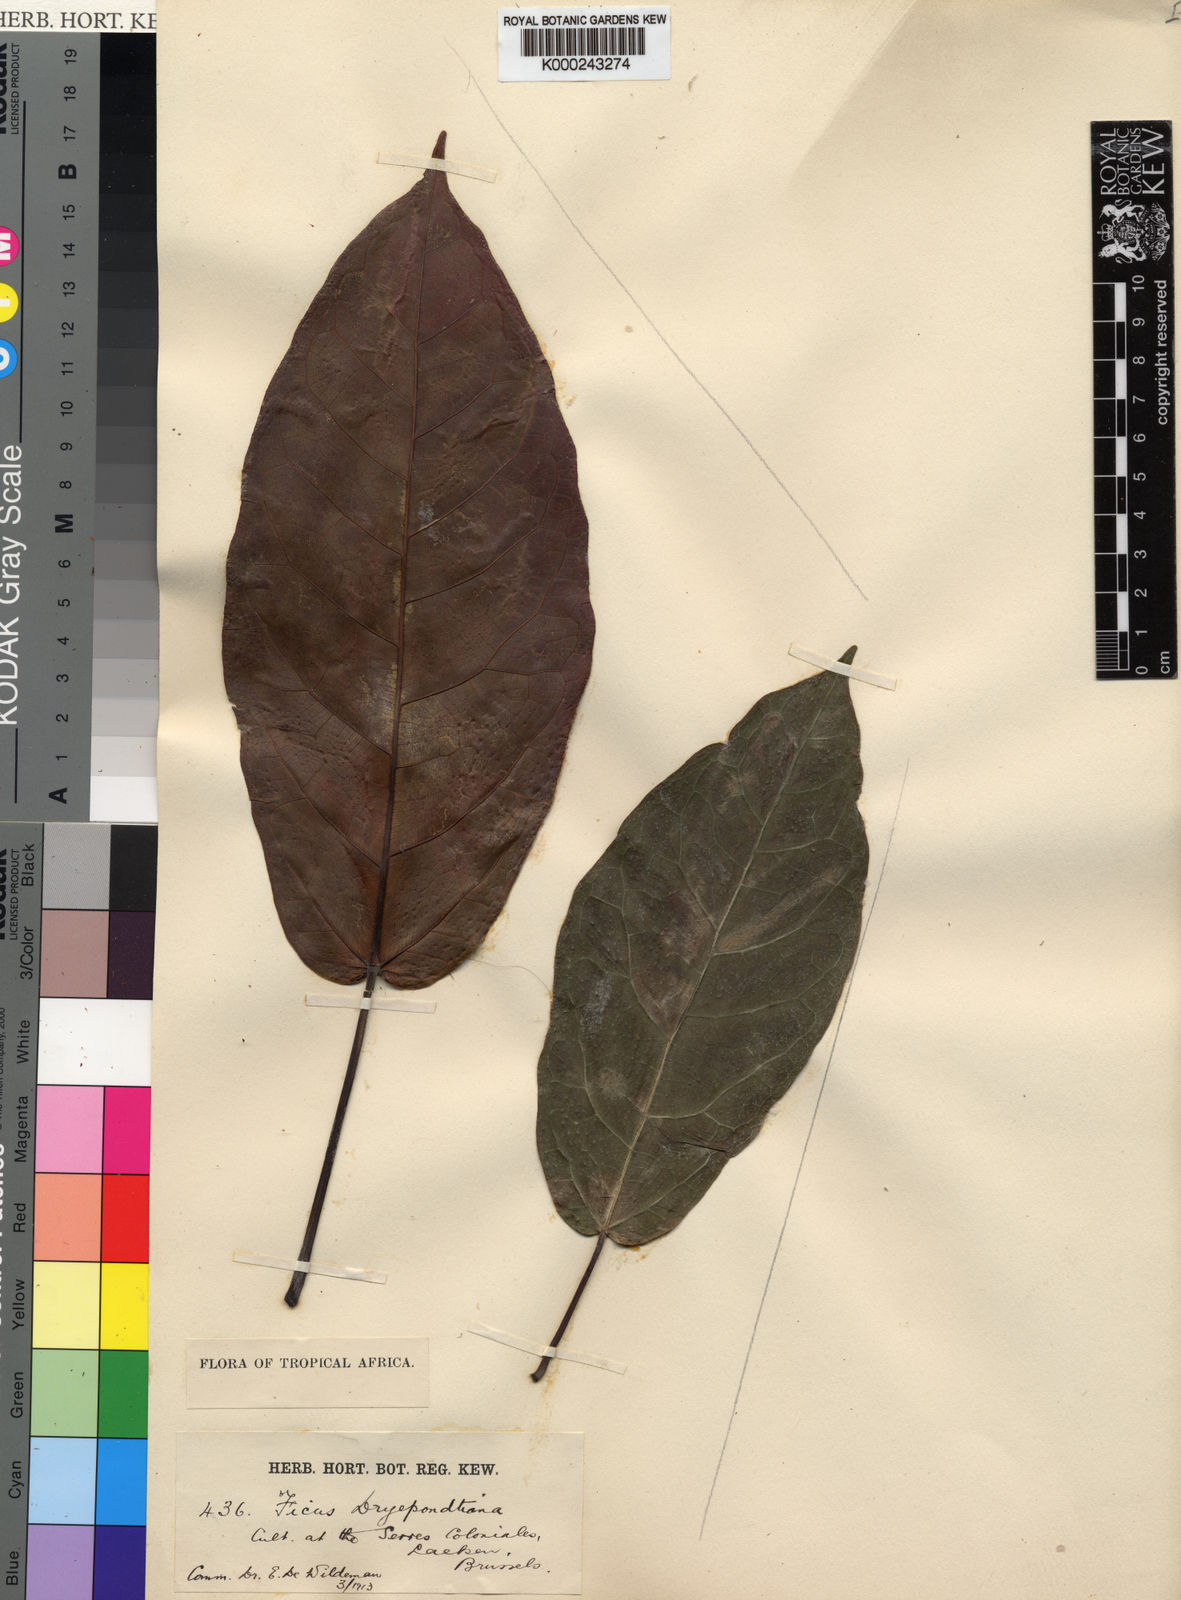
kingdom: Plantae
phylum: Tracheophyta
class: Magnoliopsida
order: Rosales
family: Moraceae
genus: Ficus
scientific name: Ficus
